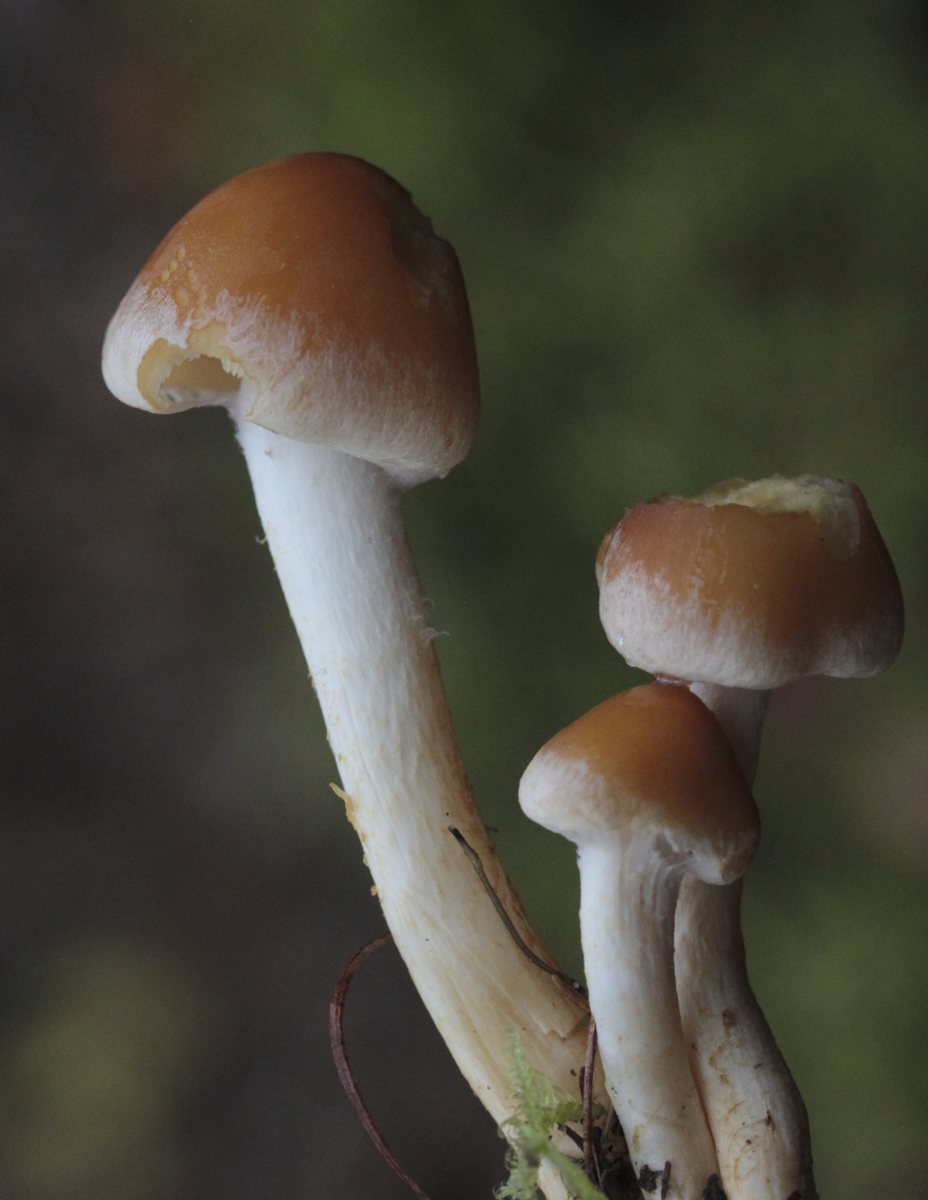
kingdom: Fungi
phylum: Basidiomycota
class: Agaricomycetes
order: Agaricales
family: Strophariaceae
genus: Hypholoma
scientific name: Hypholoma
